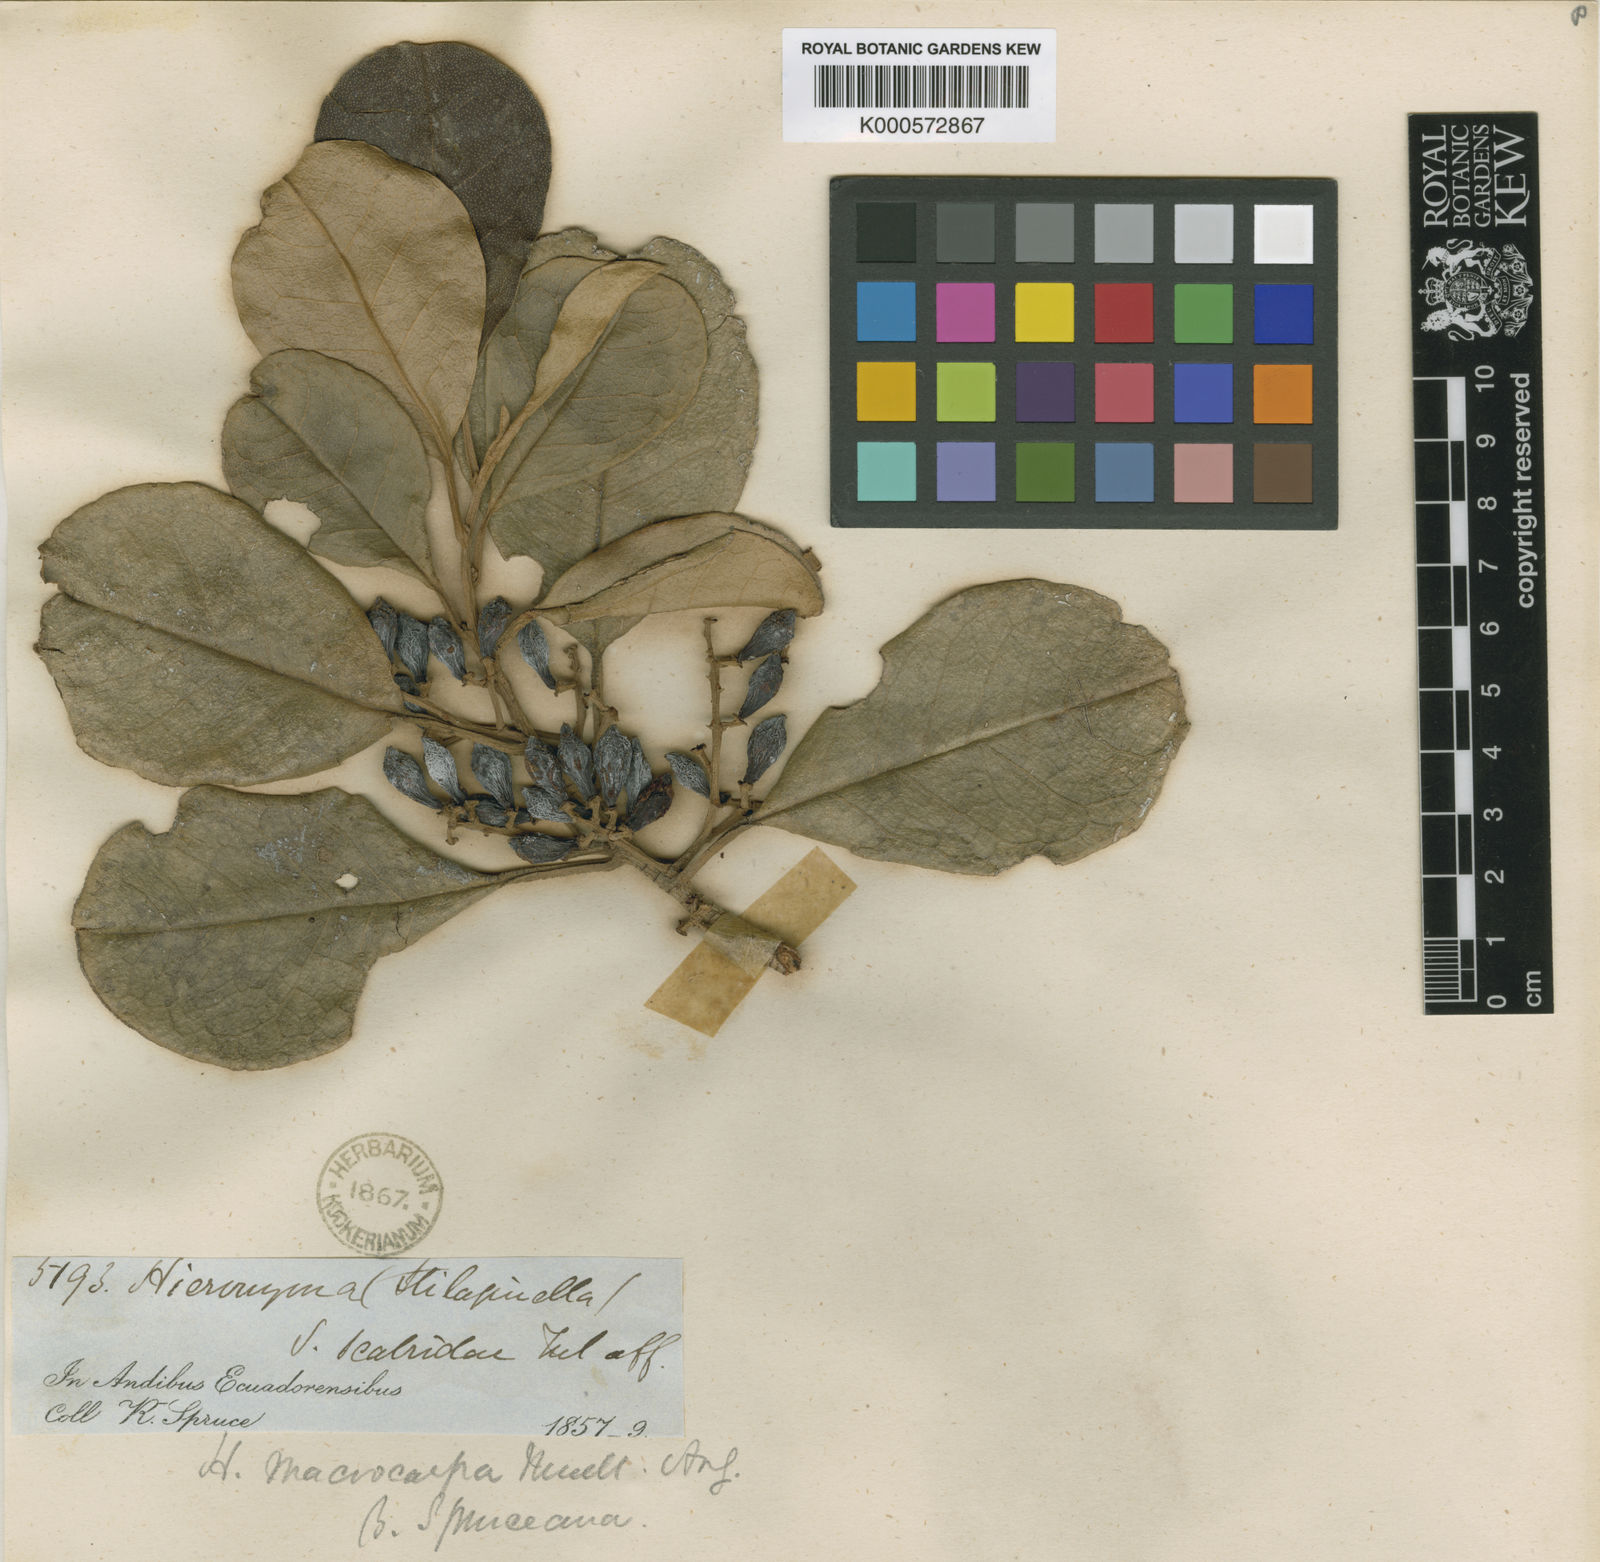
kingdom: Plantae
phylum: Tracheophyta
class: Magnoliopsida
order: Malpighiales
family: Phyllanthaceae
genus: Hieronyma
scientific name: Hieronyma
